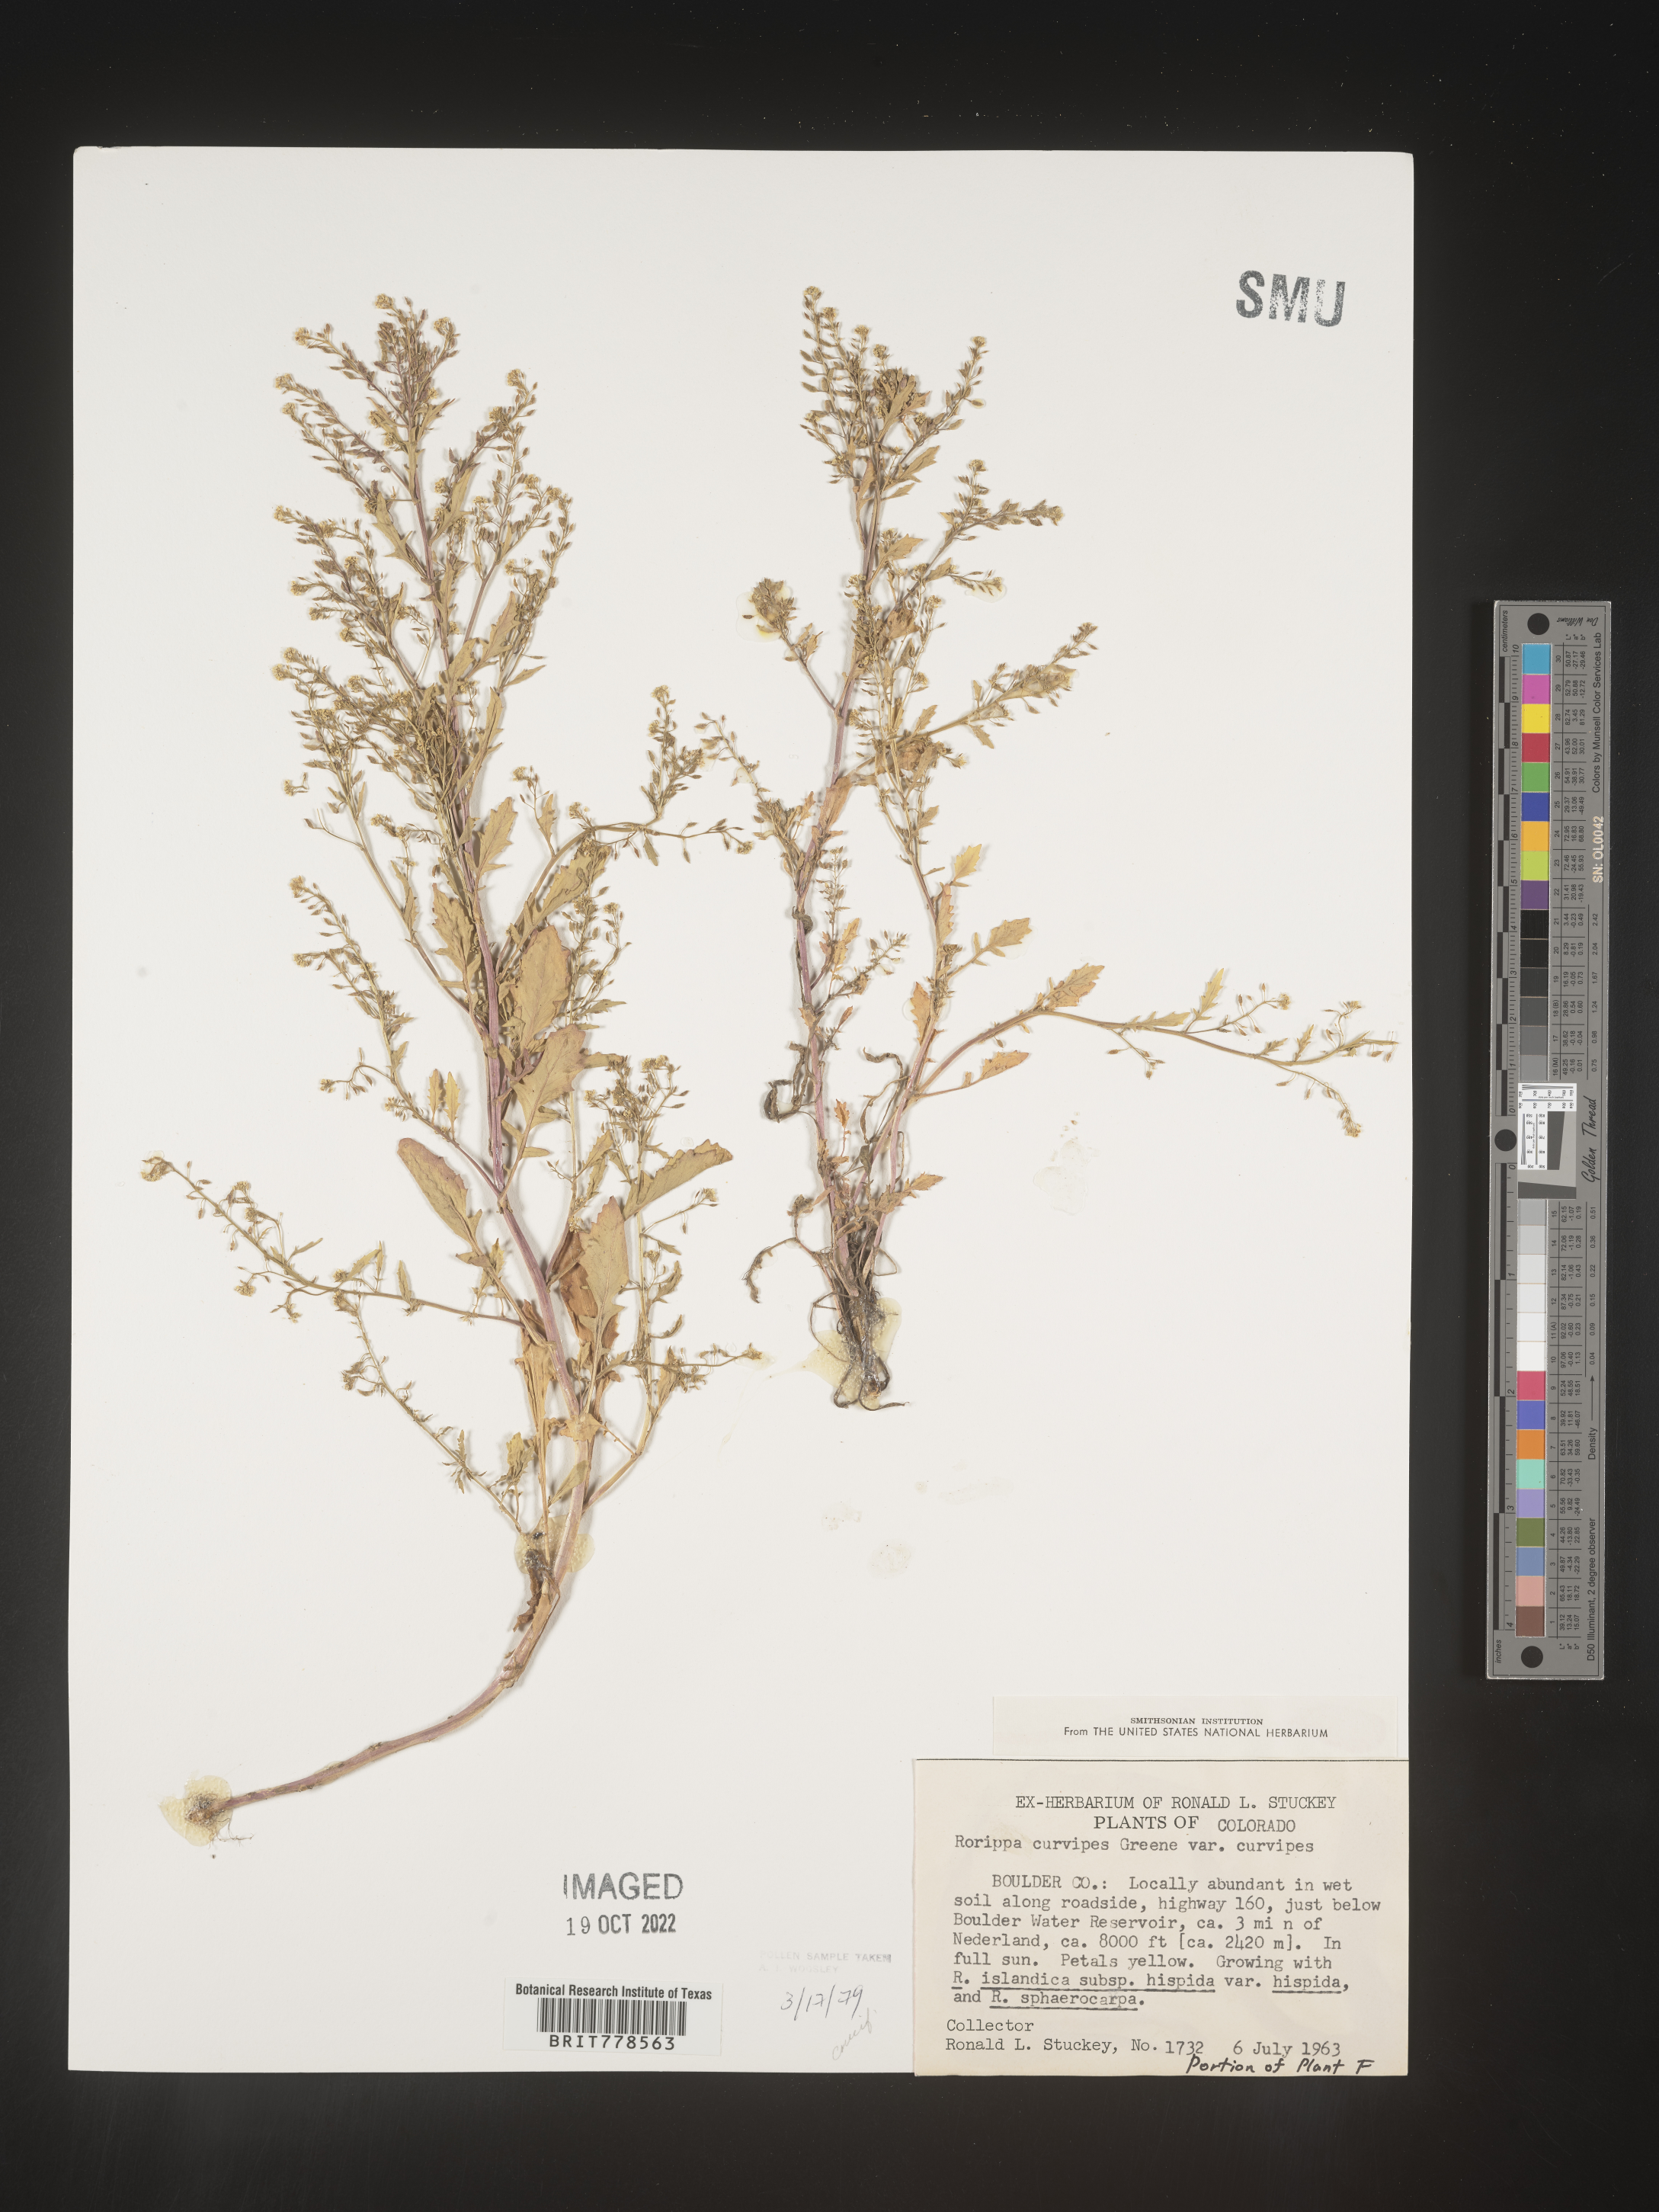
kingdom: Plantae
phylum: Tracheophyta
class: Magnoliopsida
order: Brassicales
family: Brassicaceae
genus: Rorippa
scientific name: Rorippa
